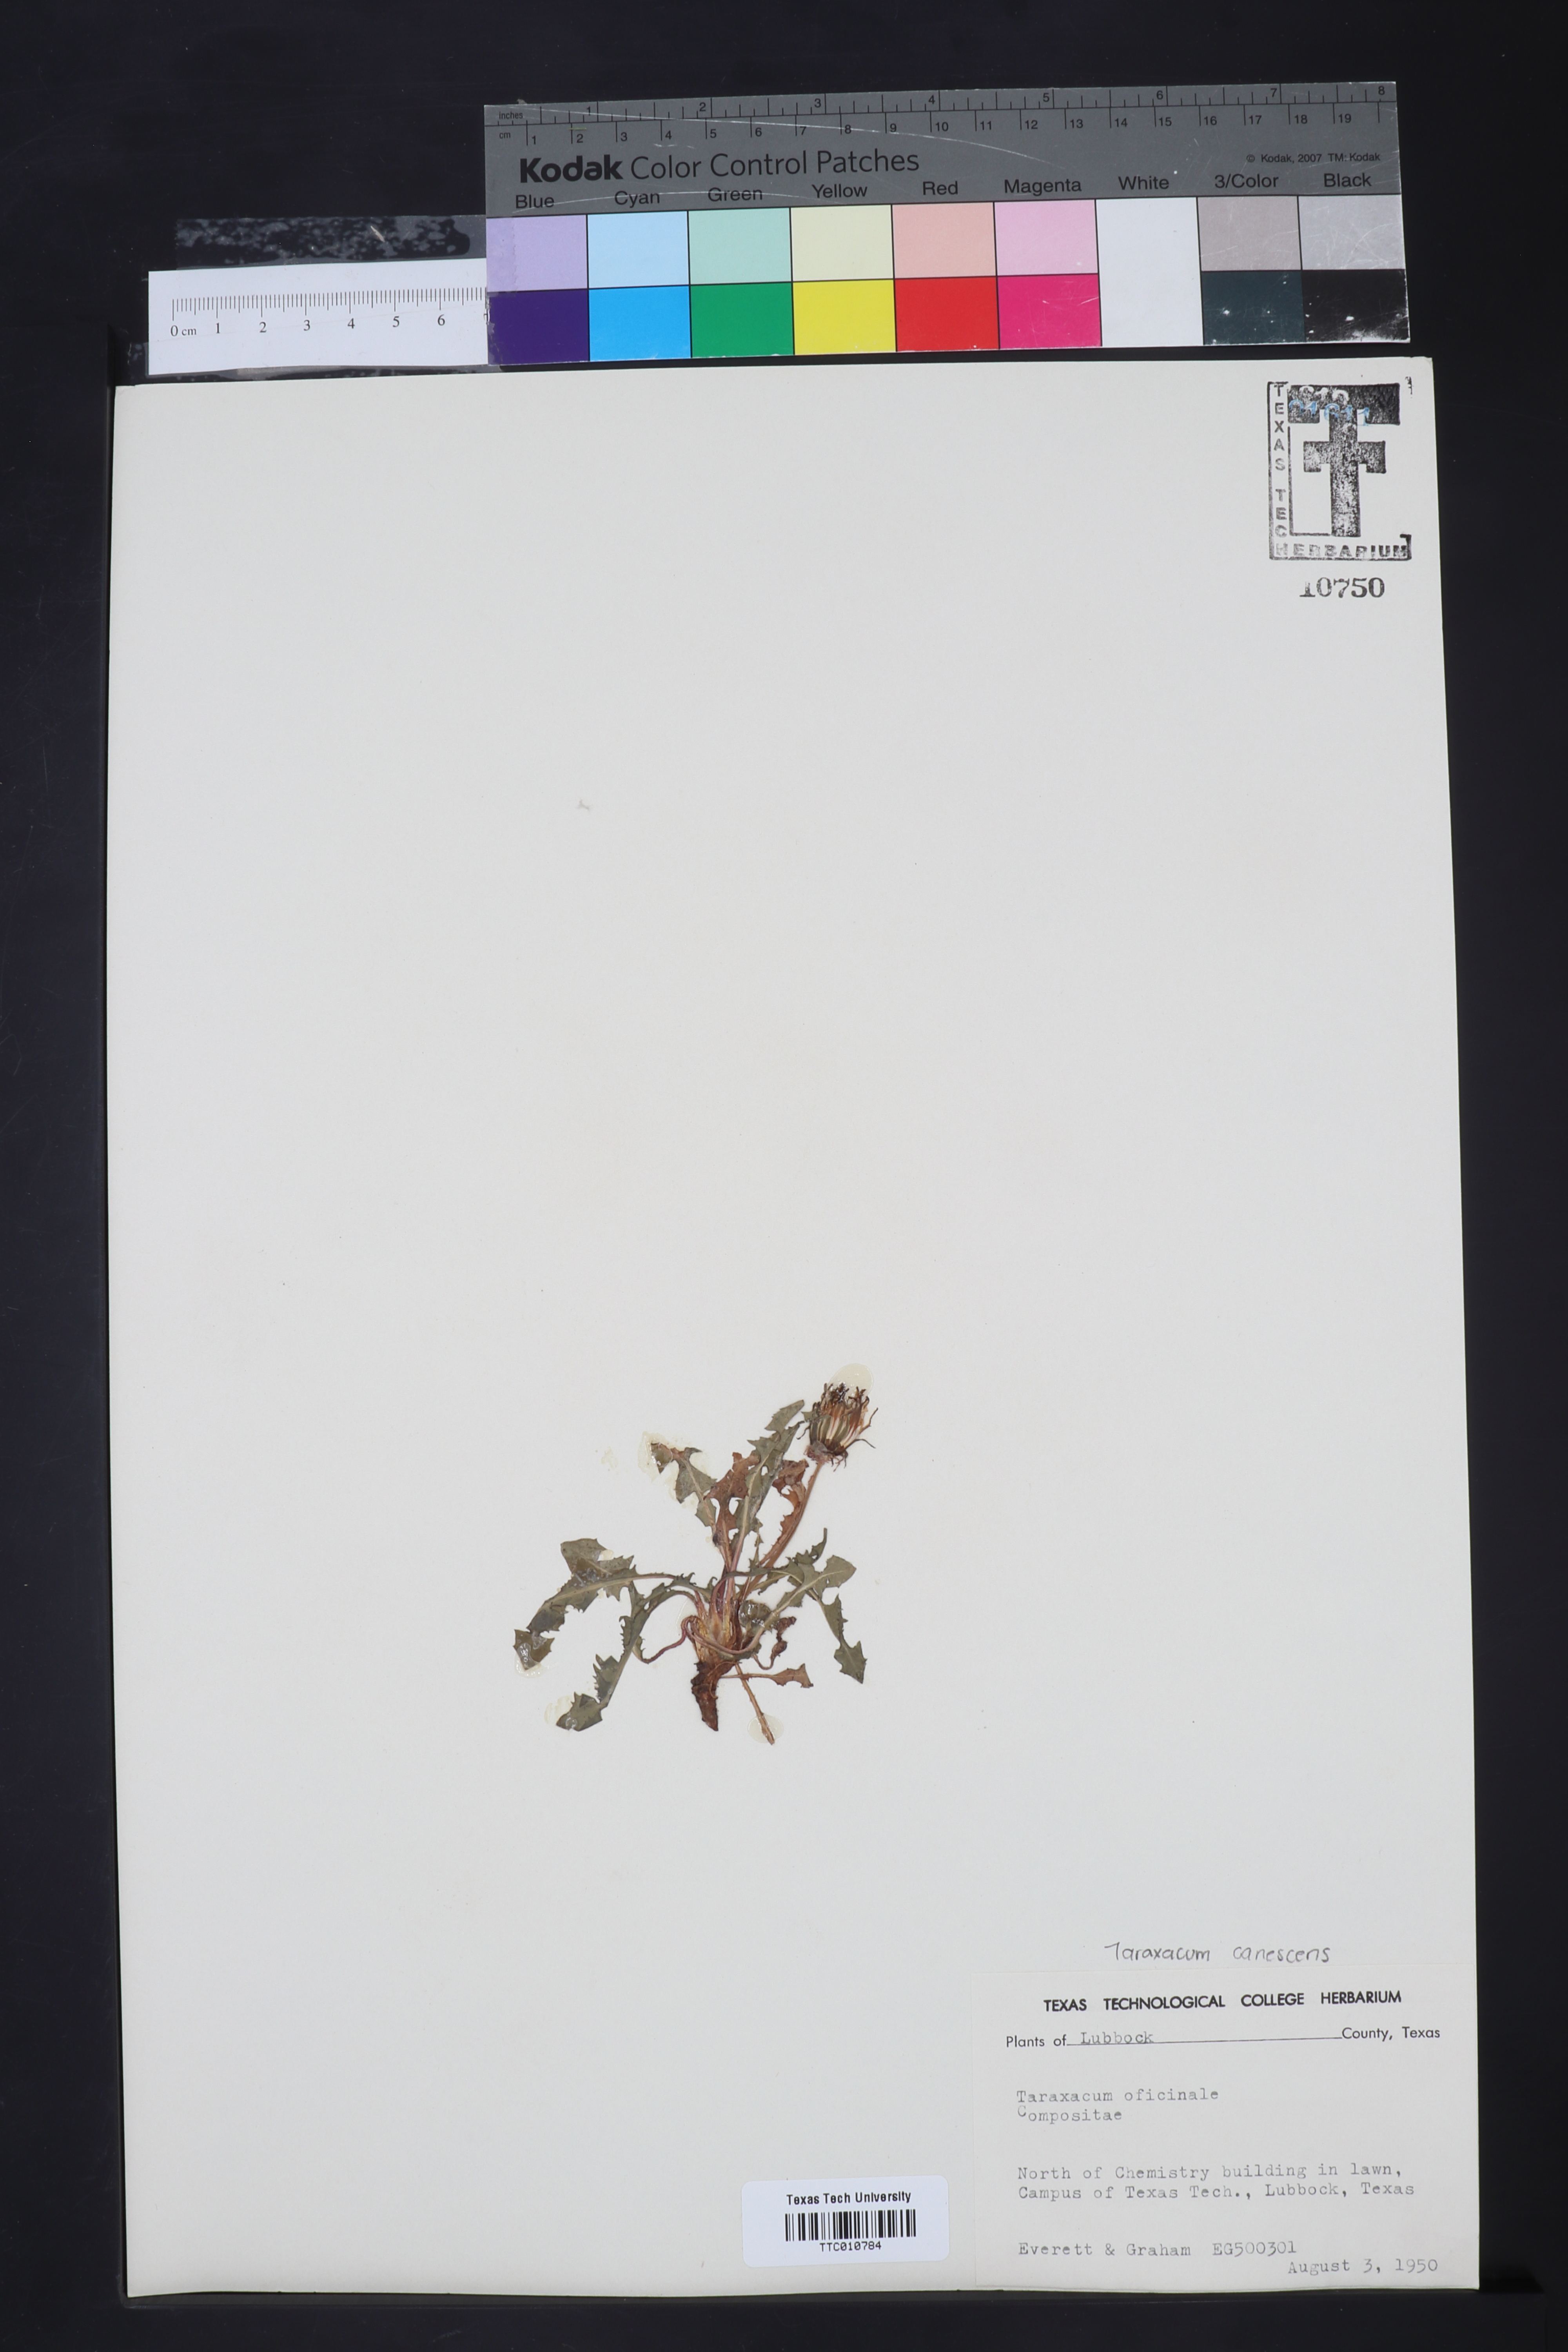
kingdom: Plantae
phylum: Tracheophyta
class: Magnoliopsida
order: Asterales
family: Asteraceae
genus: Taraxacum
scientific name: Taraxacum officinale
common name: Common dandelion
